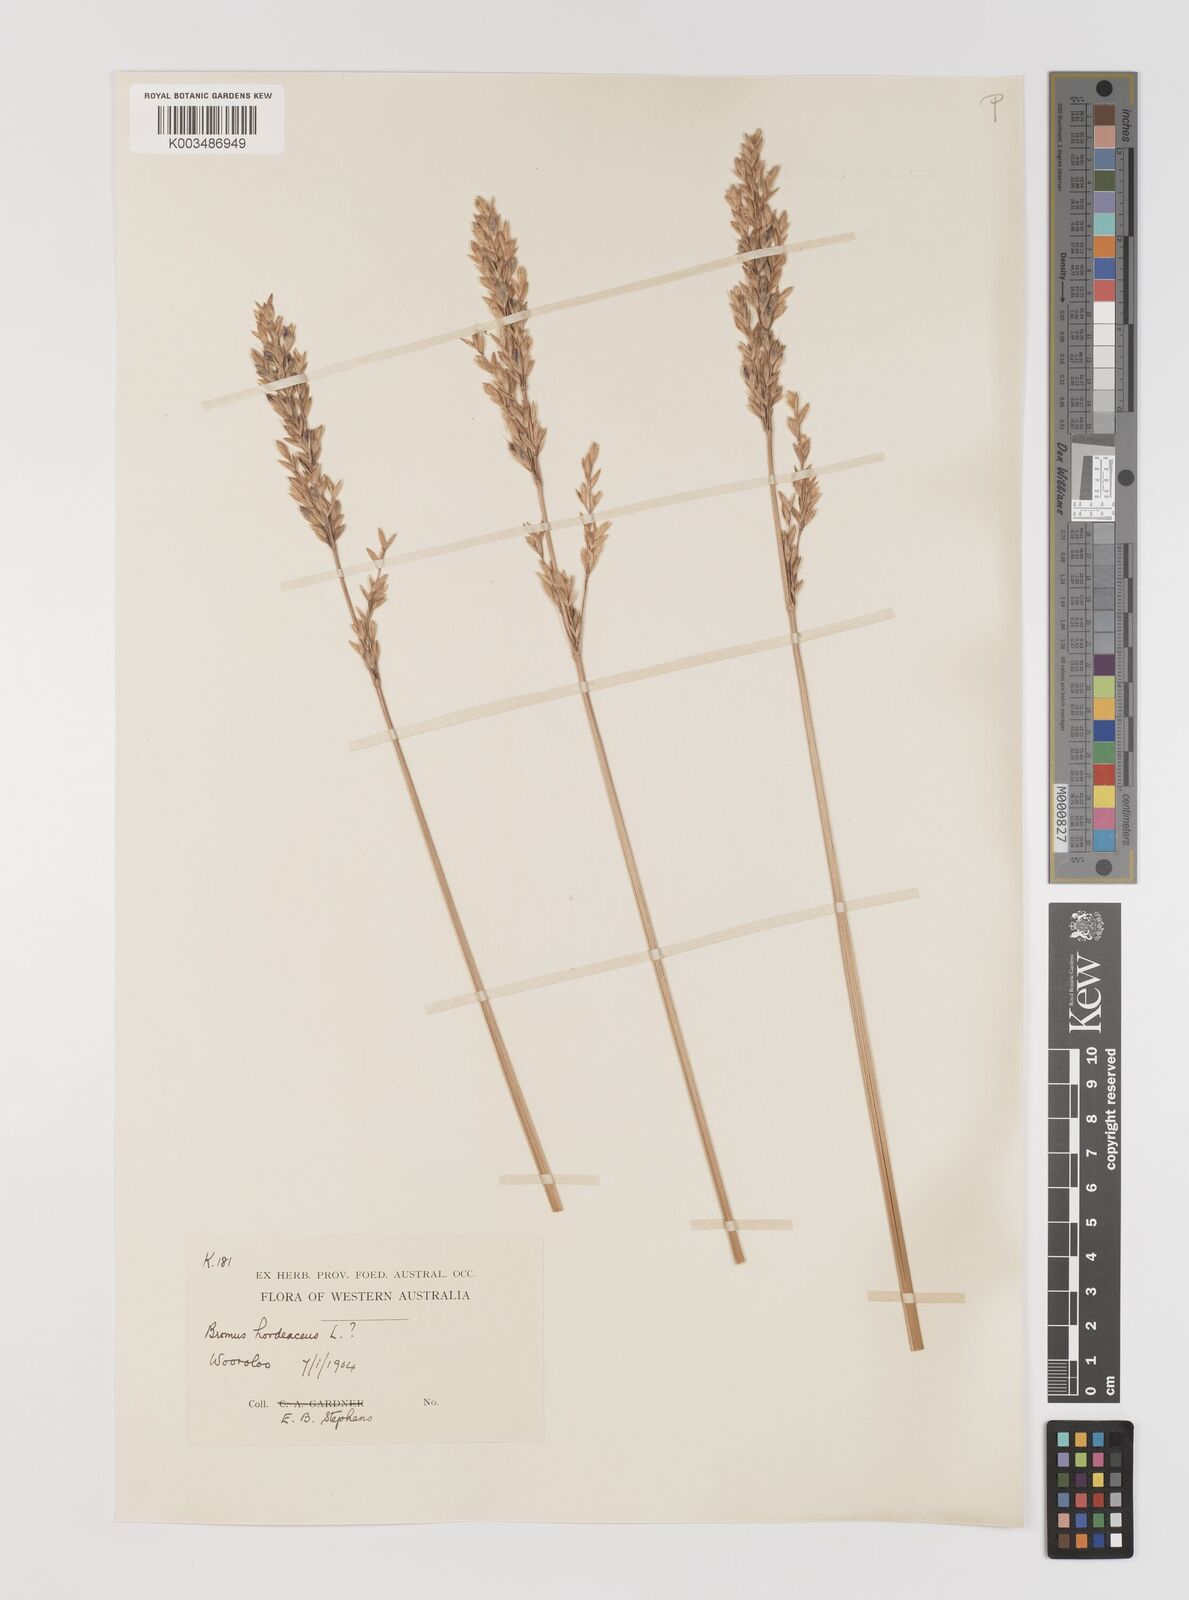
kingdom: Plantae
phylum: Tracheophyta
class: Liliopsida
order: Poales
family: Poaceae
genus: Bromus
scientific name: Bromus hordeaceus
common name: Soft brome
